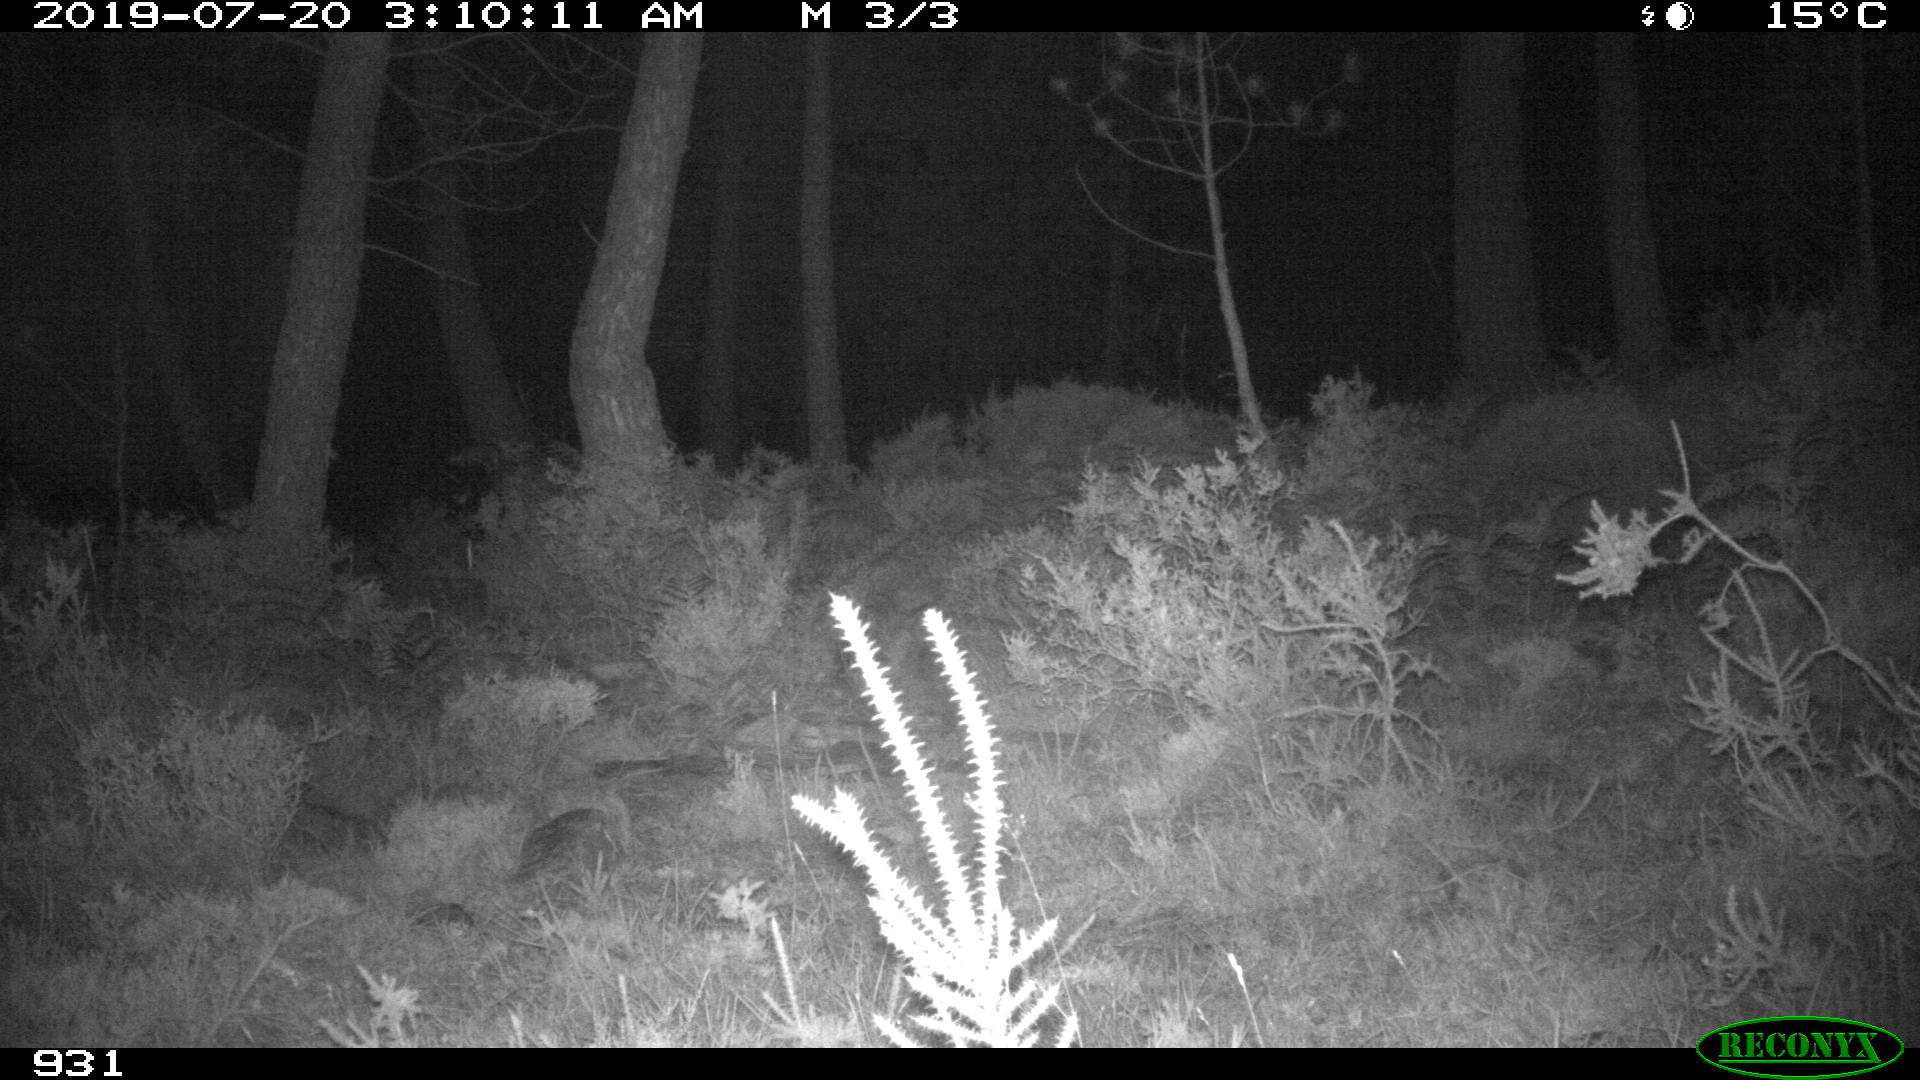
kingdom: Animalia
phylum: Chordata
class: Mammalia
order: Artiodactyla
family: Suidae
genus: Sus
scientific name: Sus scrofa
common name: Wild boar
